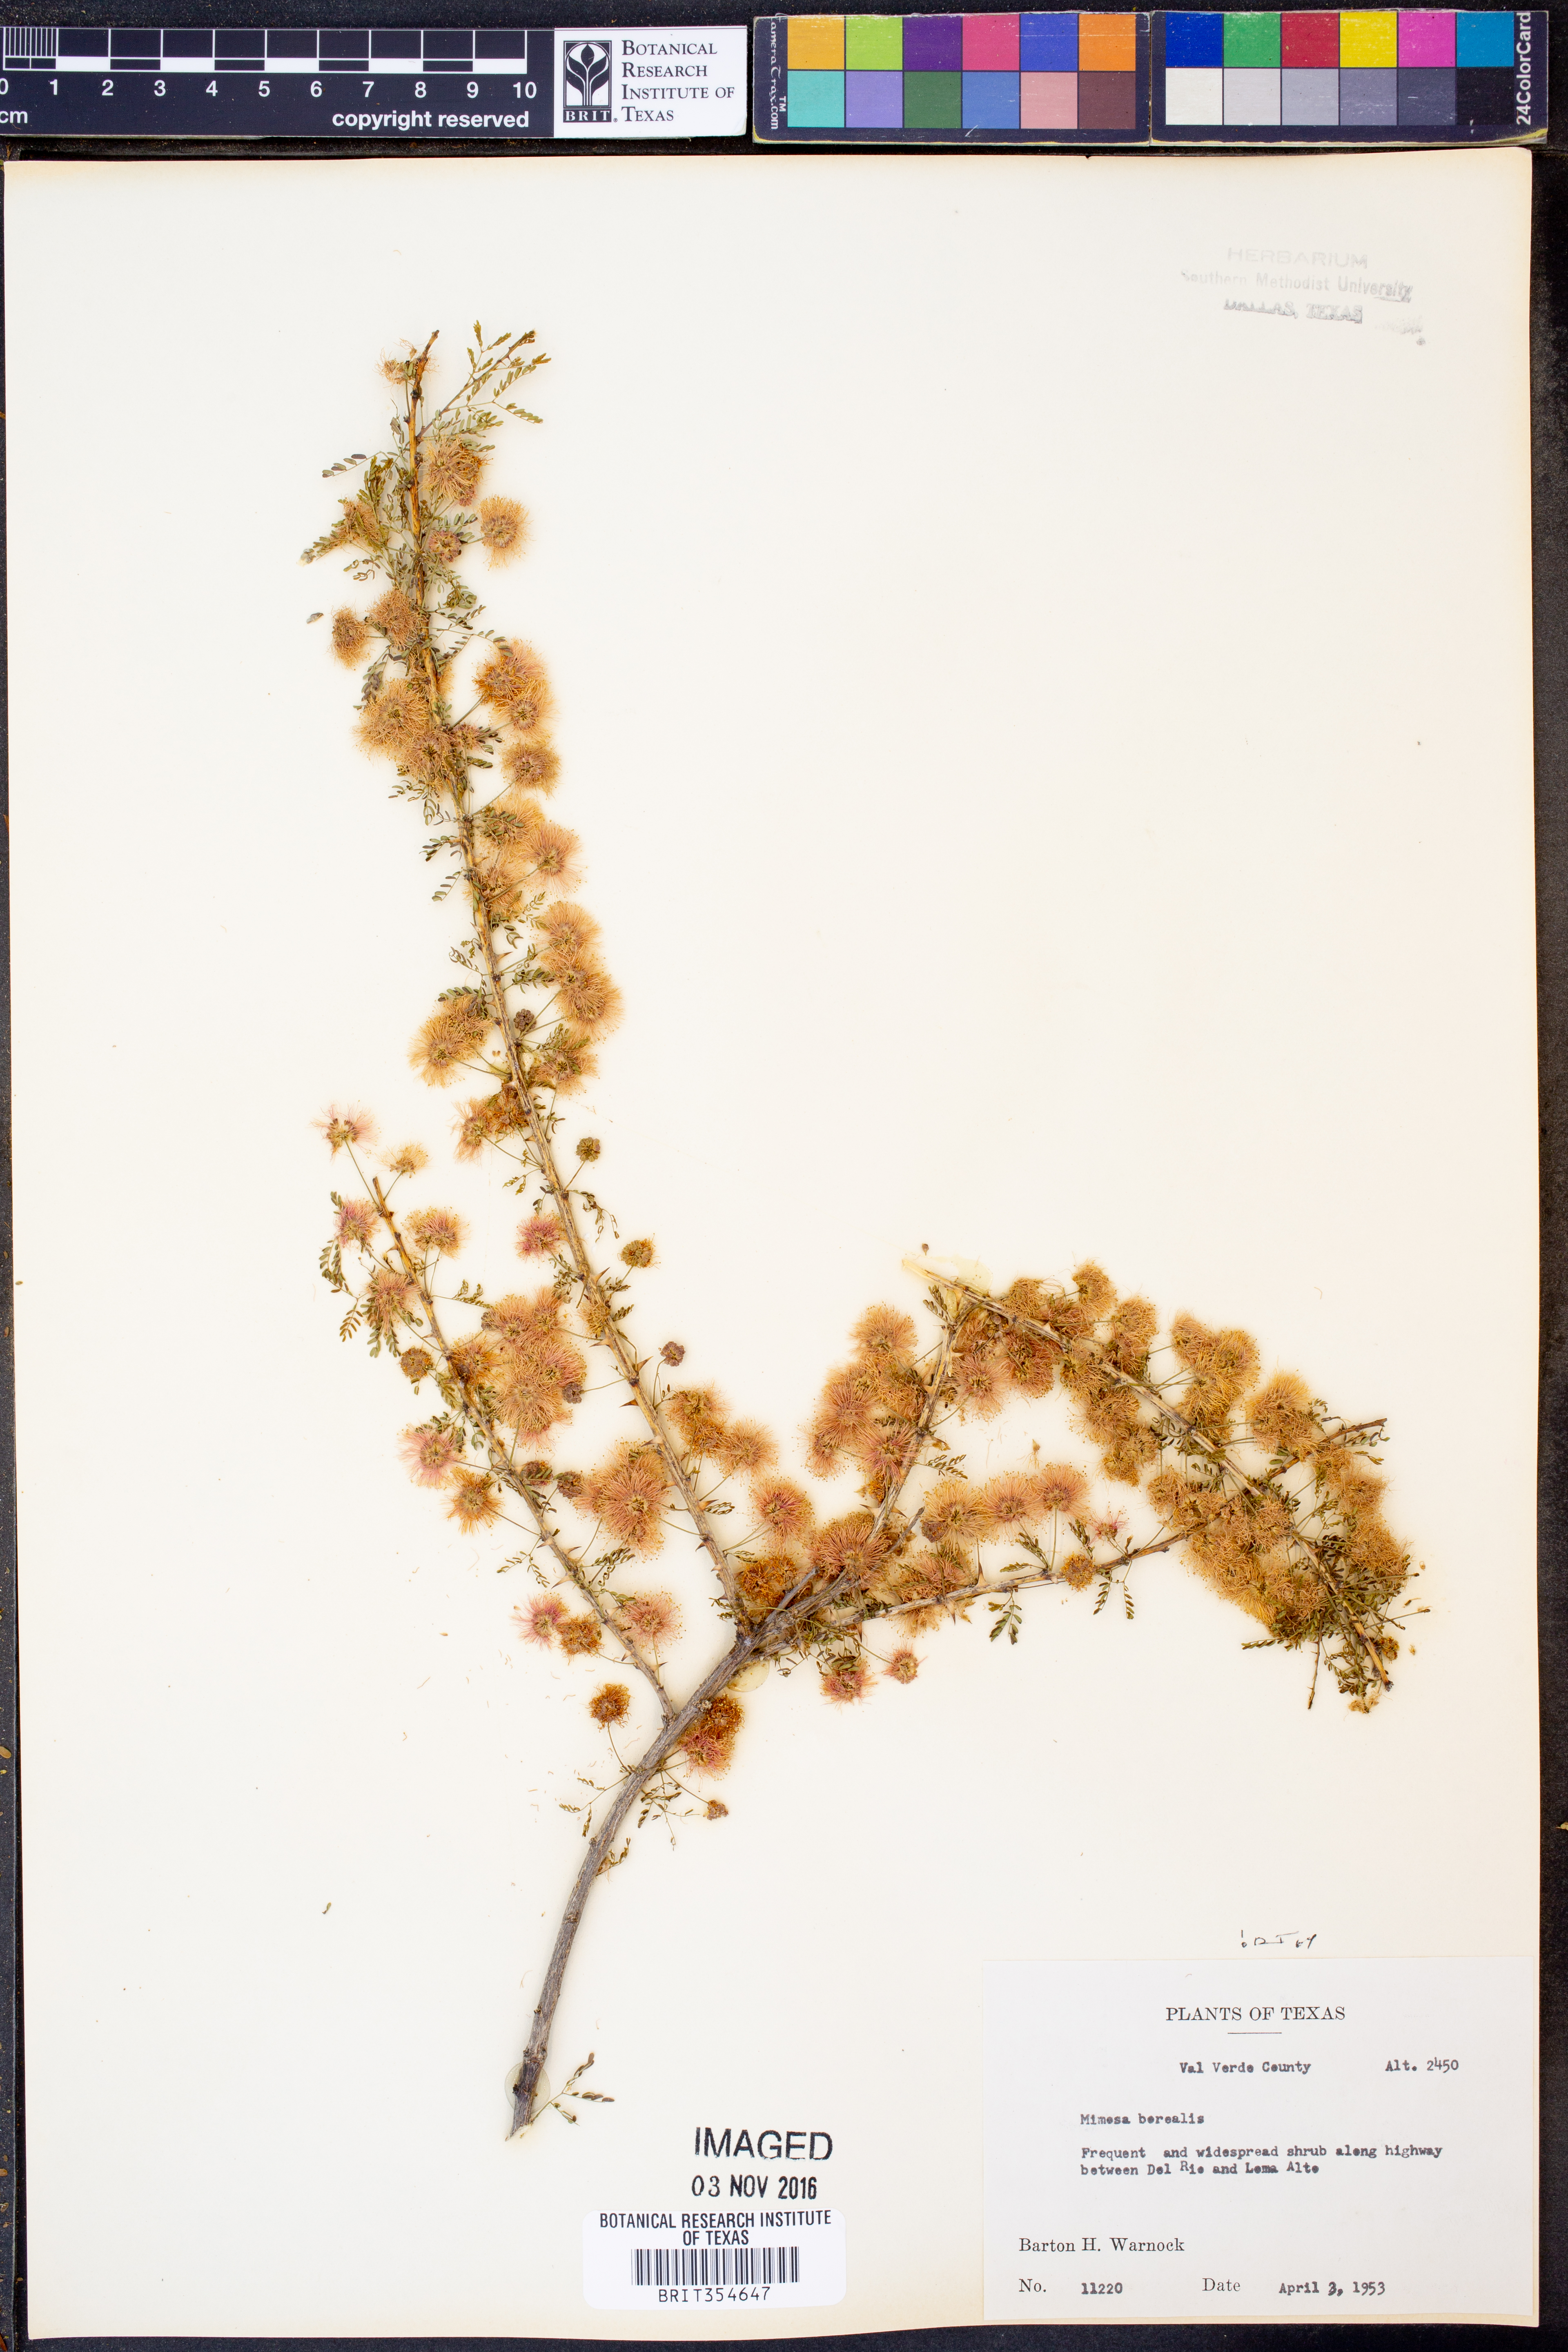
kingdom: Plantae
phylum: Tracheophyta
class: Magnoliopsida
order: Fabales
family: Fabaceae
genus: Mimosa
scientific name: Mimosa borealis
